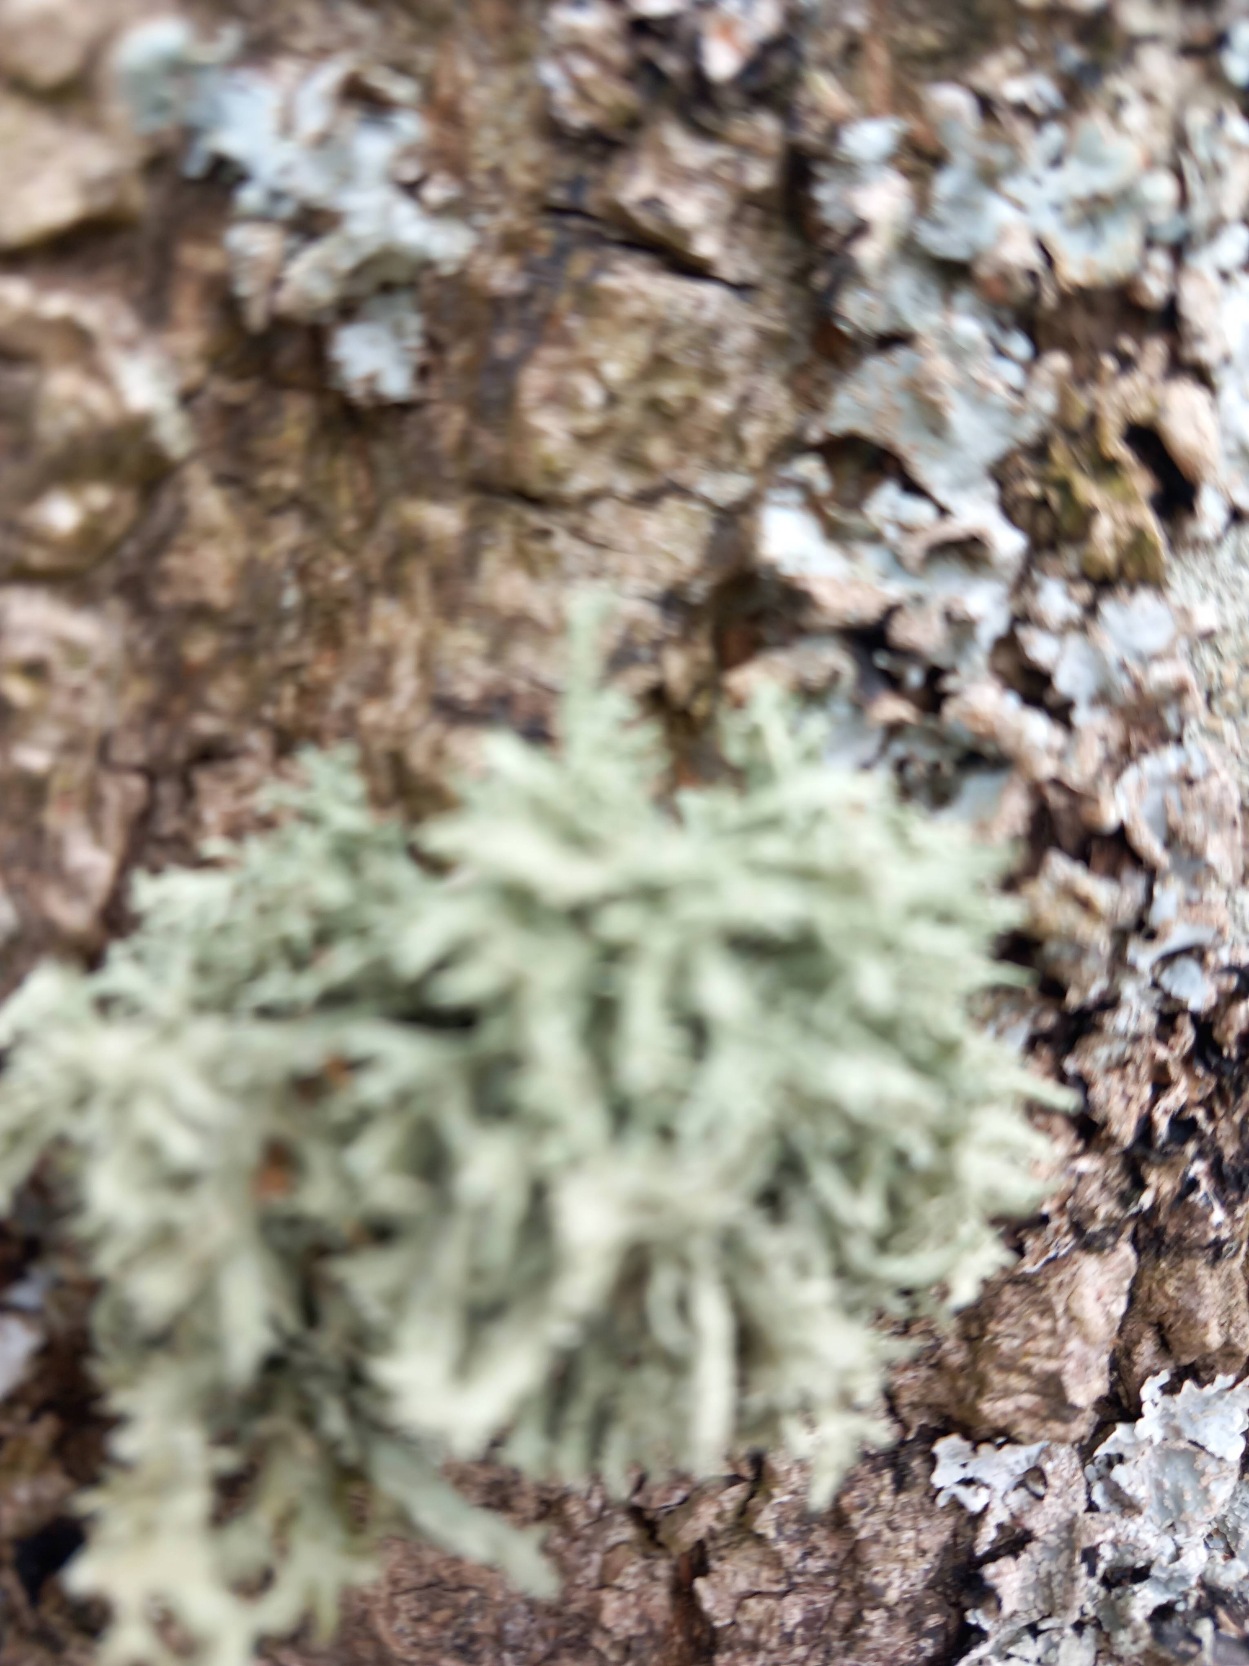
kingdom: Fungi
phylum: Ascomycota
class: Lecanoromycetes
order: Lecanorales
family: Parmeliaceae
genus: Evernia
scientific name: Evernia prunastri
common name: Almindelig slåenlav
